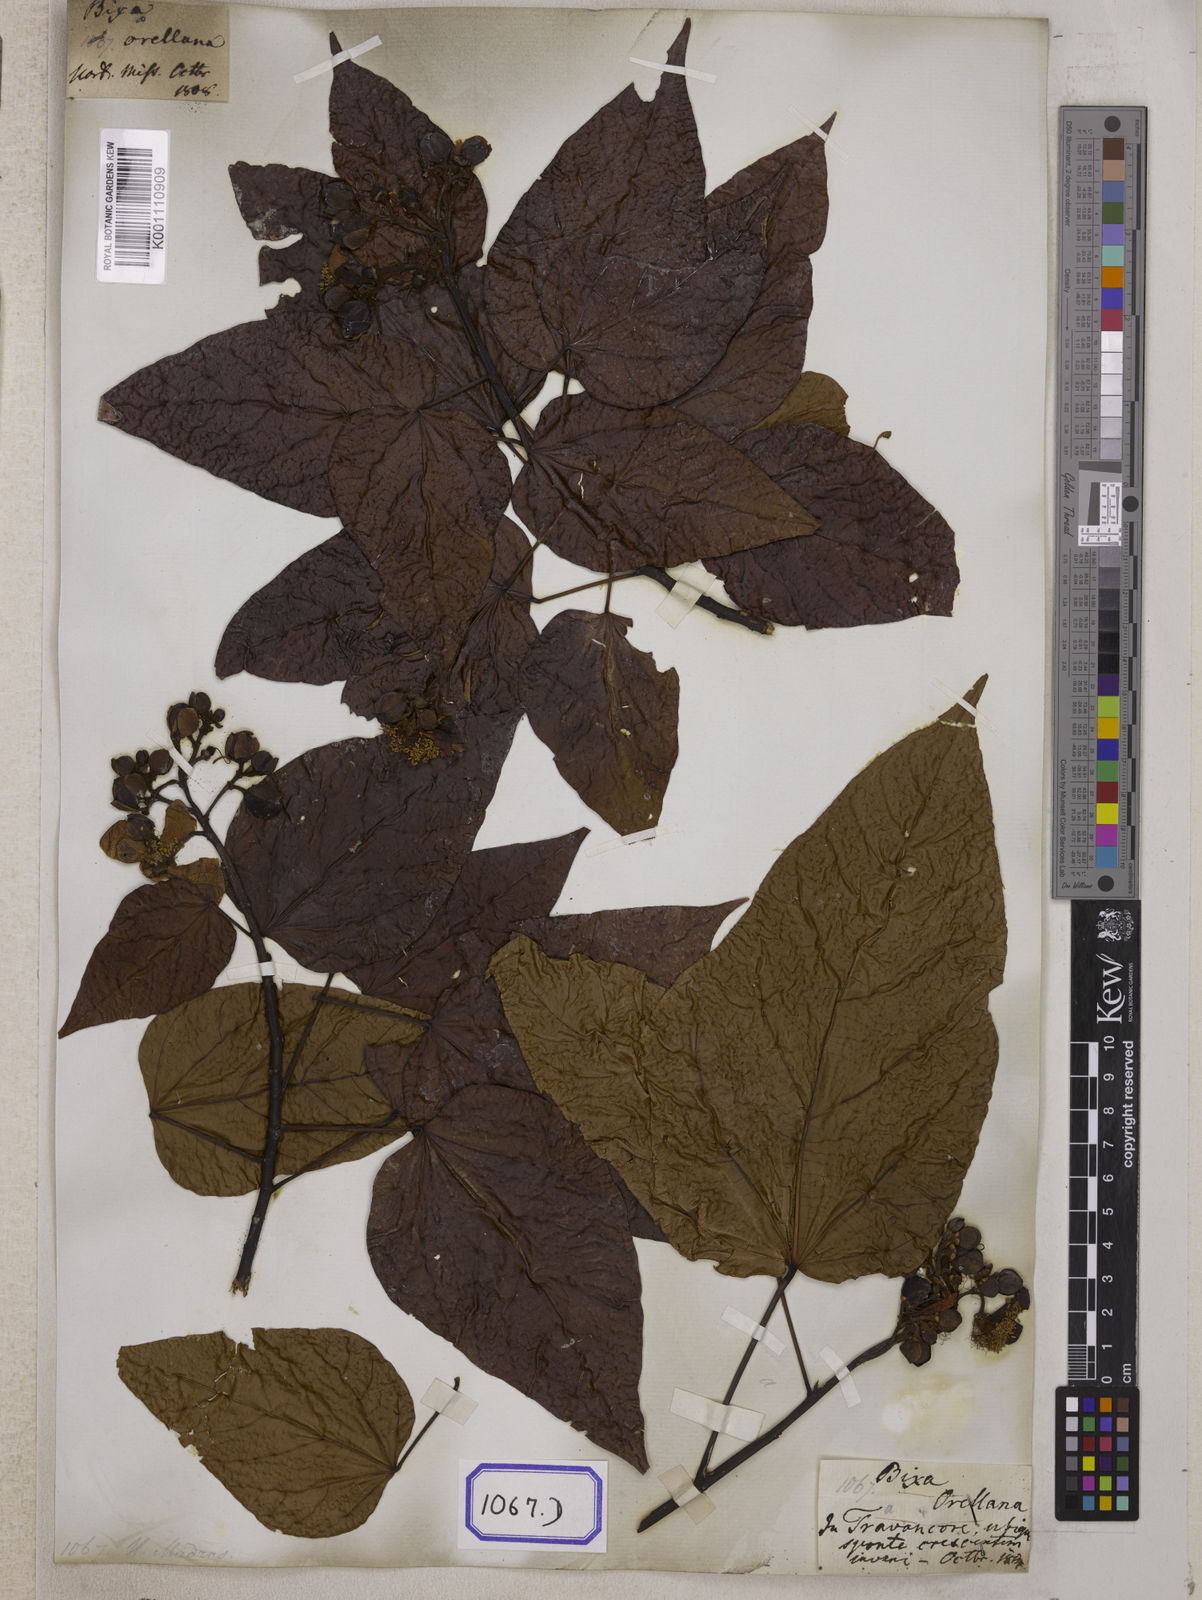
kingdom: Plantae
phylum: Tracheophyta
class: Magnoliopsida
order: Malvales
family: Bixaceae
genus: Bixa
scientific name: Bixa orellana
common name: Lipsticktree
